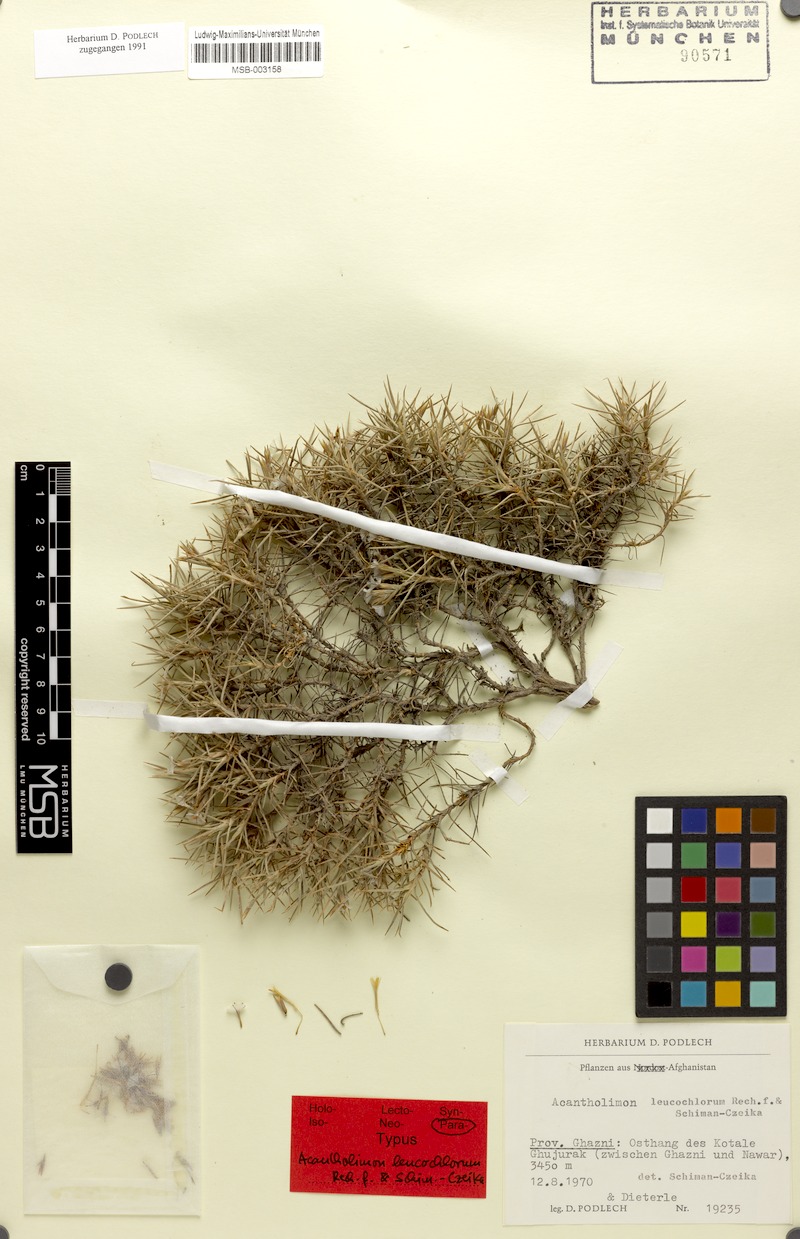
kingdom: Plantae
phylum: Tracheophyta
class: Magnoliopsida
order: Caryophyllales
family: Plumbaginaceae
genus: Acantholimon
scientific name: Acantholimon leucochlorum
